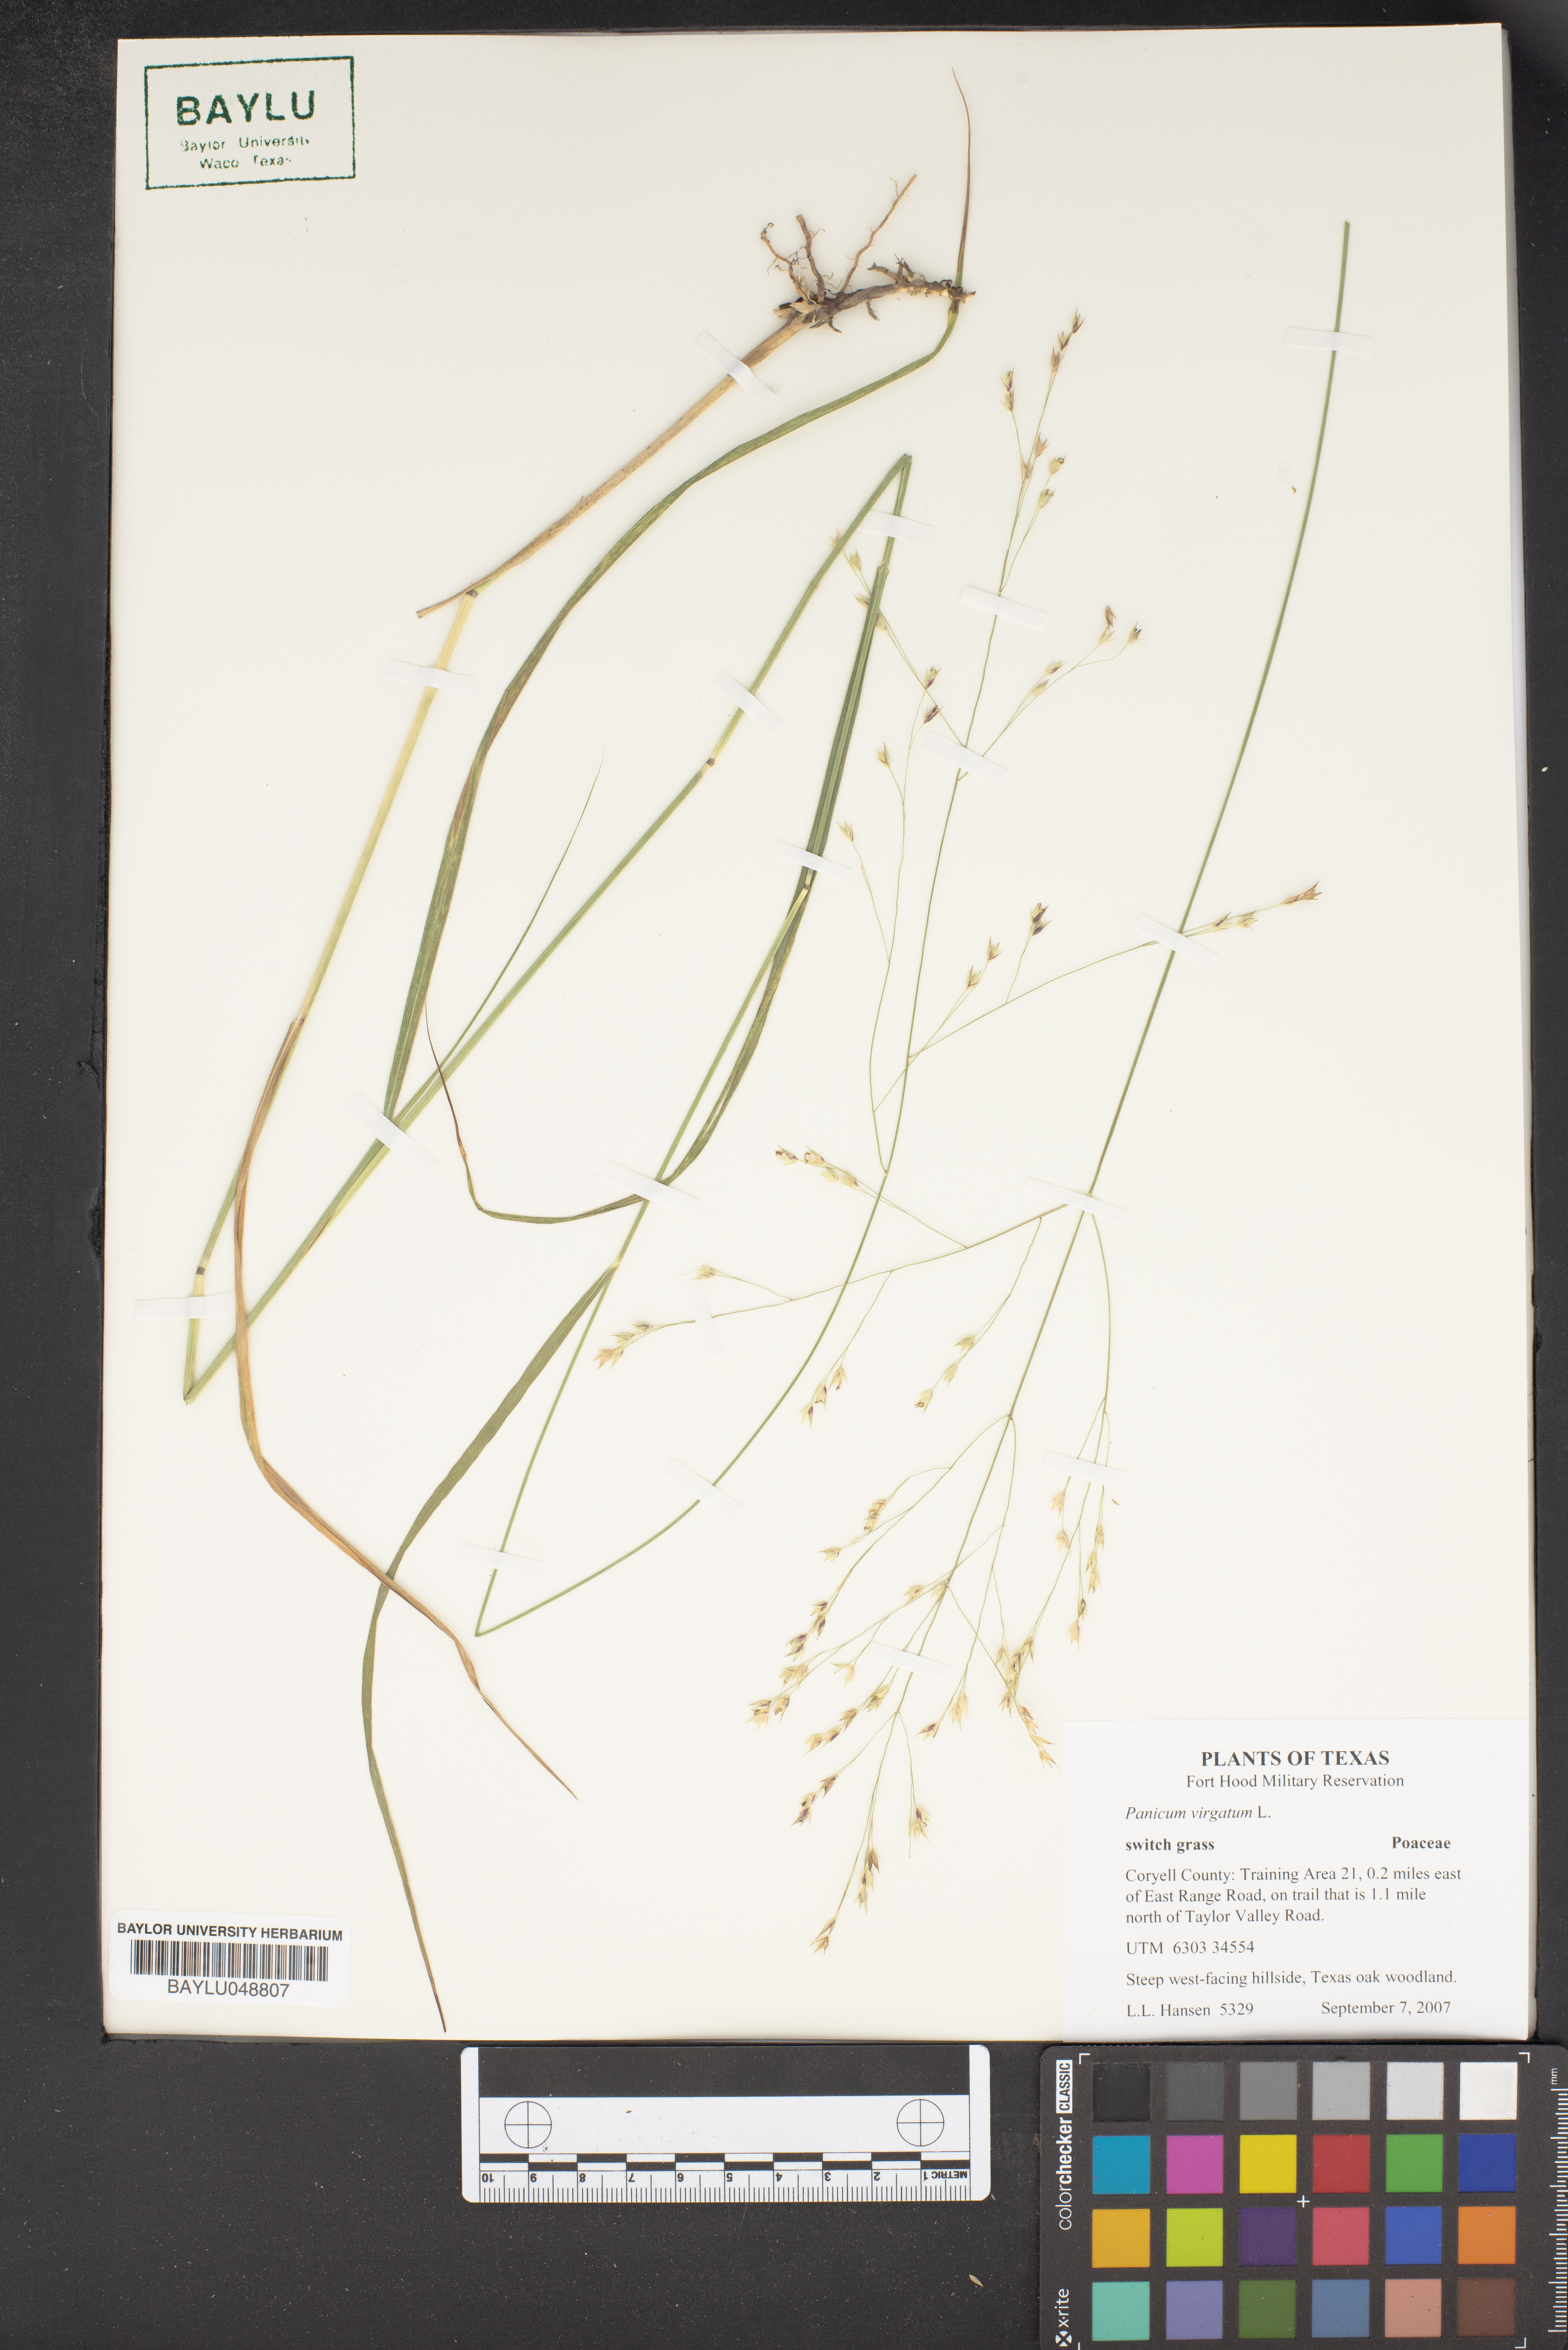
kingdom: Plantae
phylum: Tracheophyta
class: Liliopsida
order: Poales
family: Poaceae
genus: Panicum
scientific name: Panicum virgatum
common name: Switchgrass
